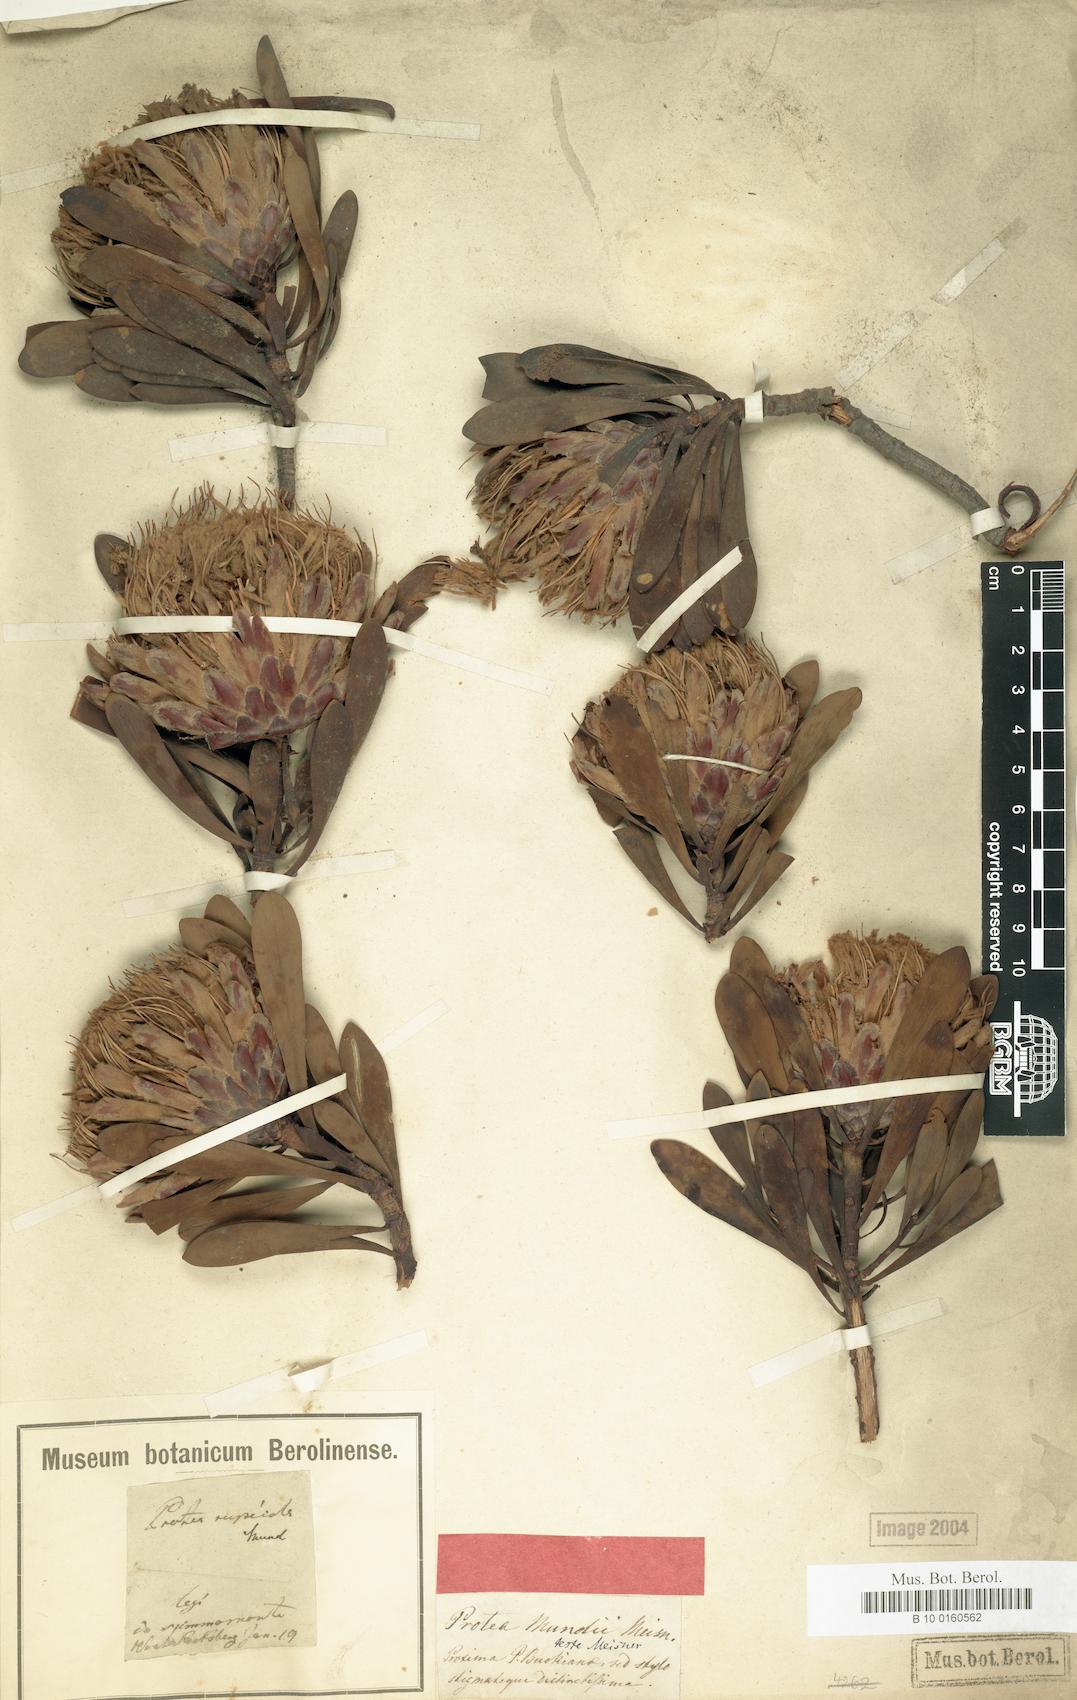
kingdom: Plantae
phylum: Tracheophyta
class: Magnoliopsida
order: Proteales
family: Proteaceae
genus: Protea
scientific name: Protea rupicola
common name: Krantz protea
